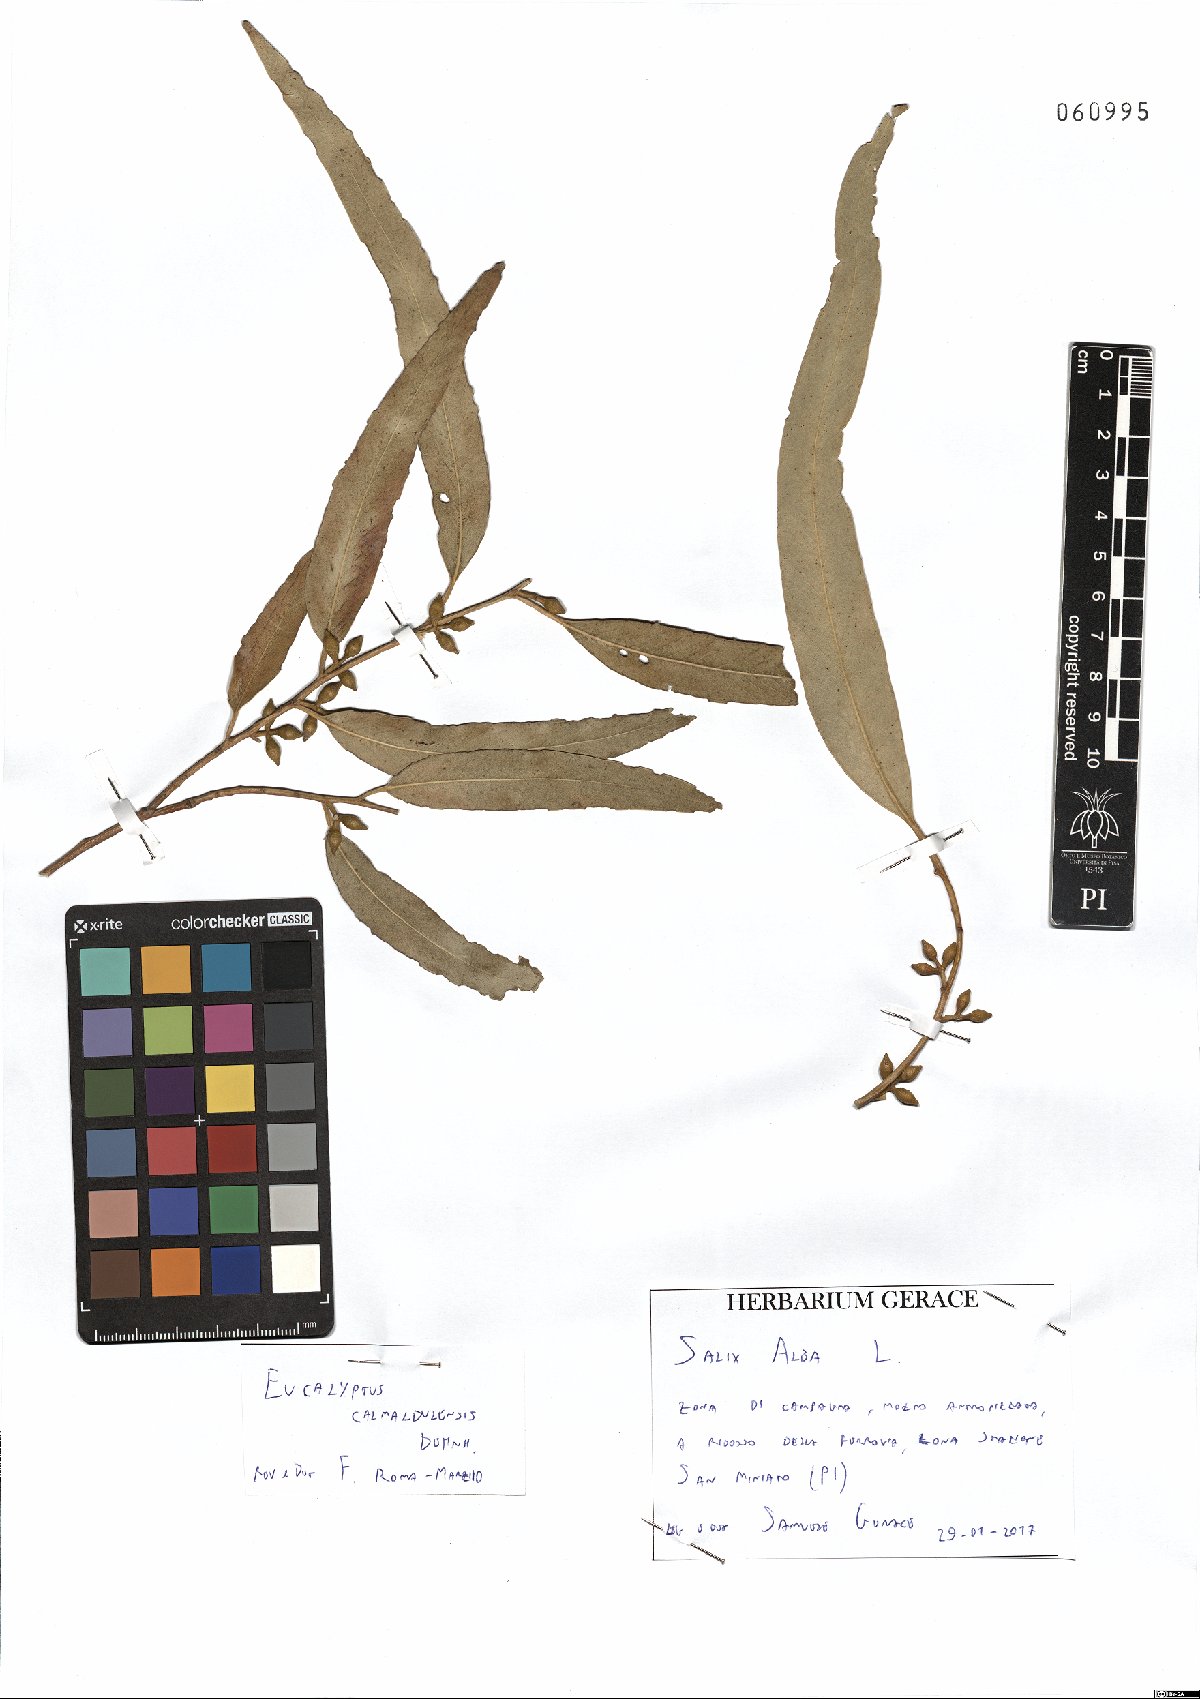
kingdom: Plantae
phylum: Tracheophyta
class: Magnoliopsida
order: Myrtales
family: Myrtaceae
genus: Eucalyptus
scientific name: Eucalyptus camaldulensis
